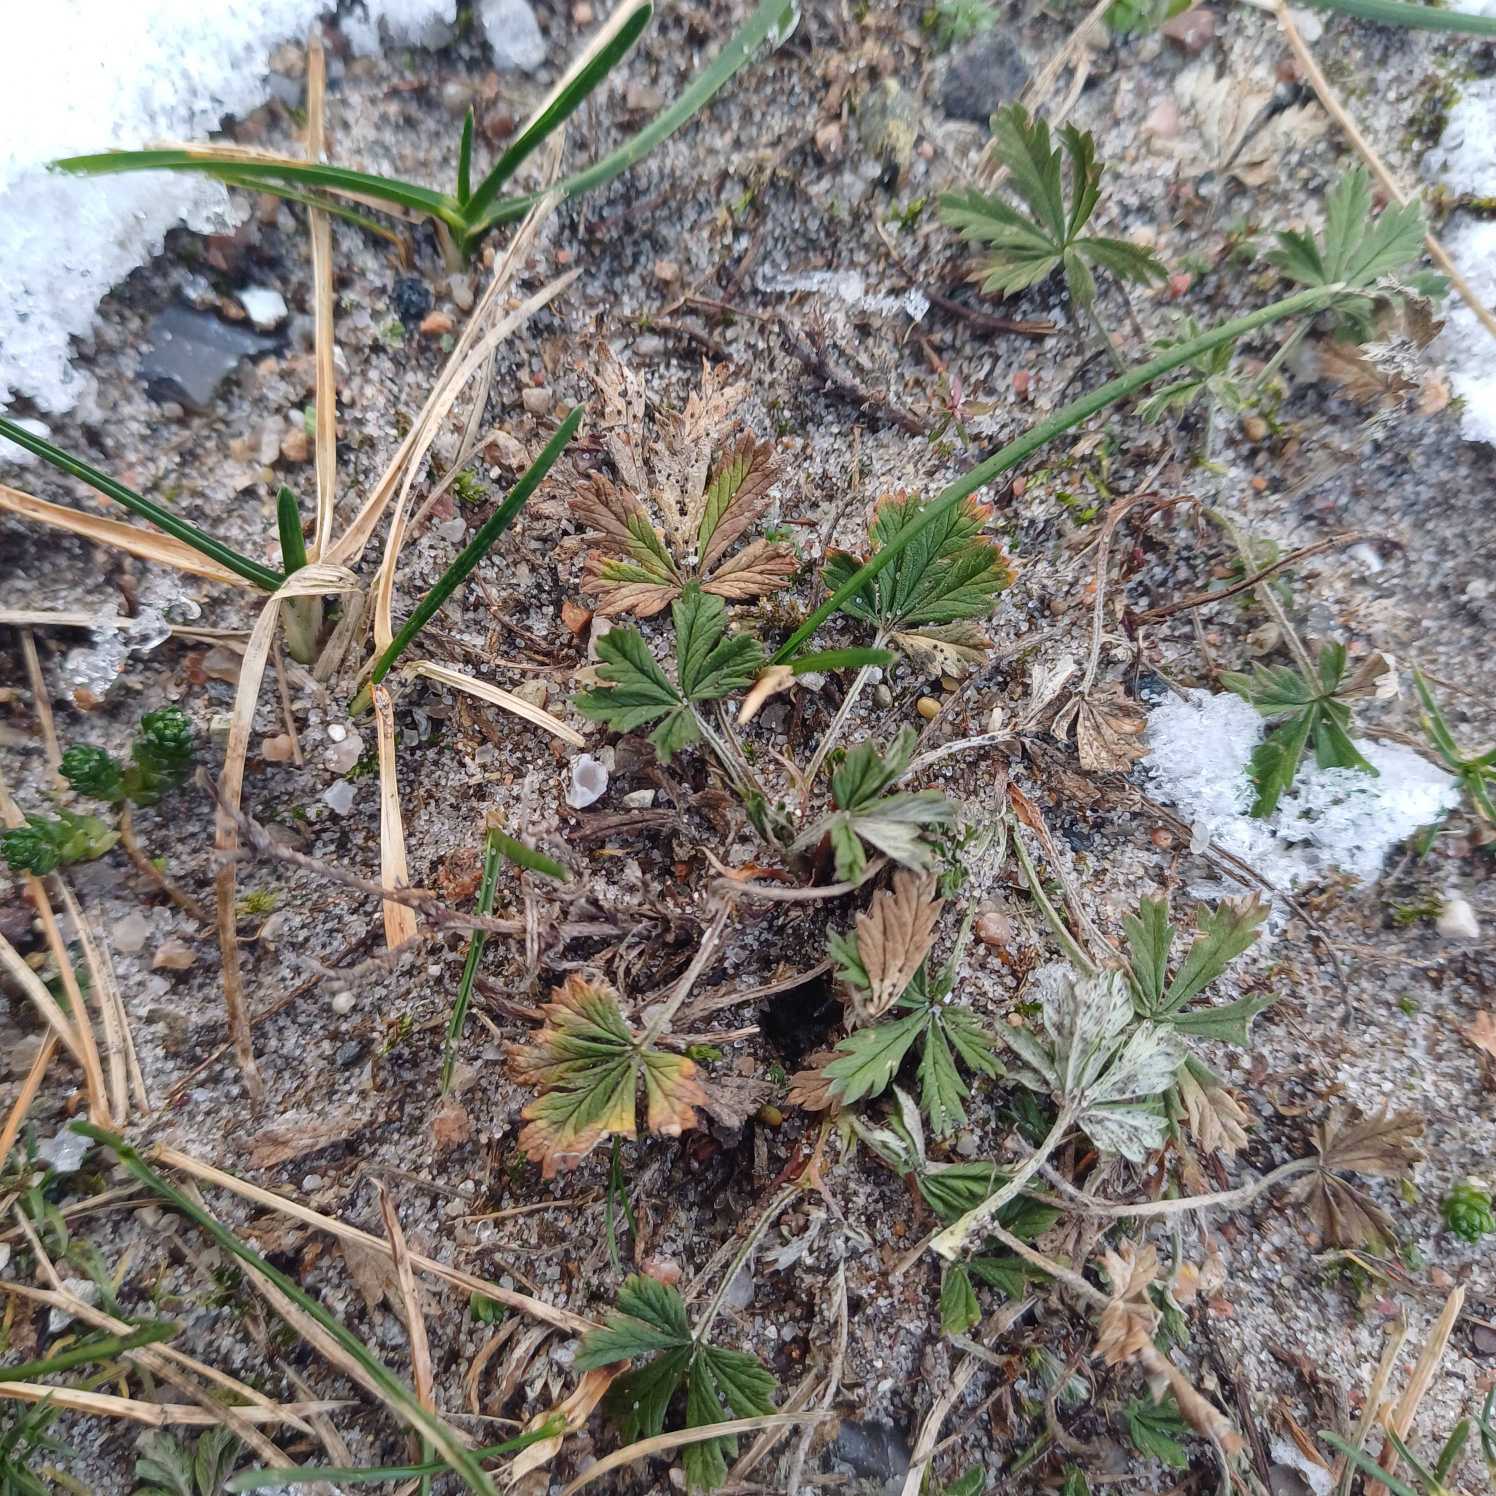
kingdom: Plantae
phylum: Tracheophyta
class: Magnoliopsida
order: Rosales
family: Rosaceae
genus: Potentilla
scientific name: Potentilla argentea
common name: Sølv-potentil
